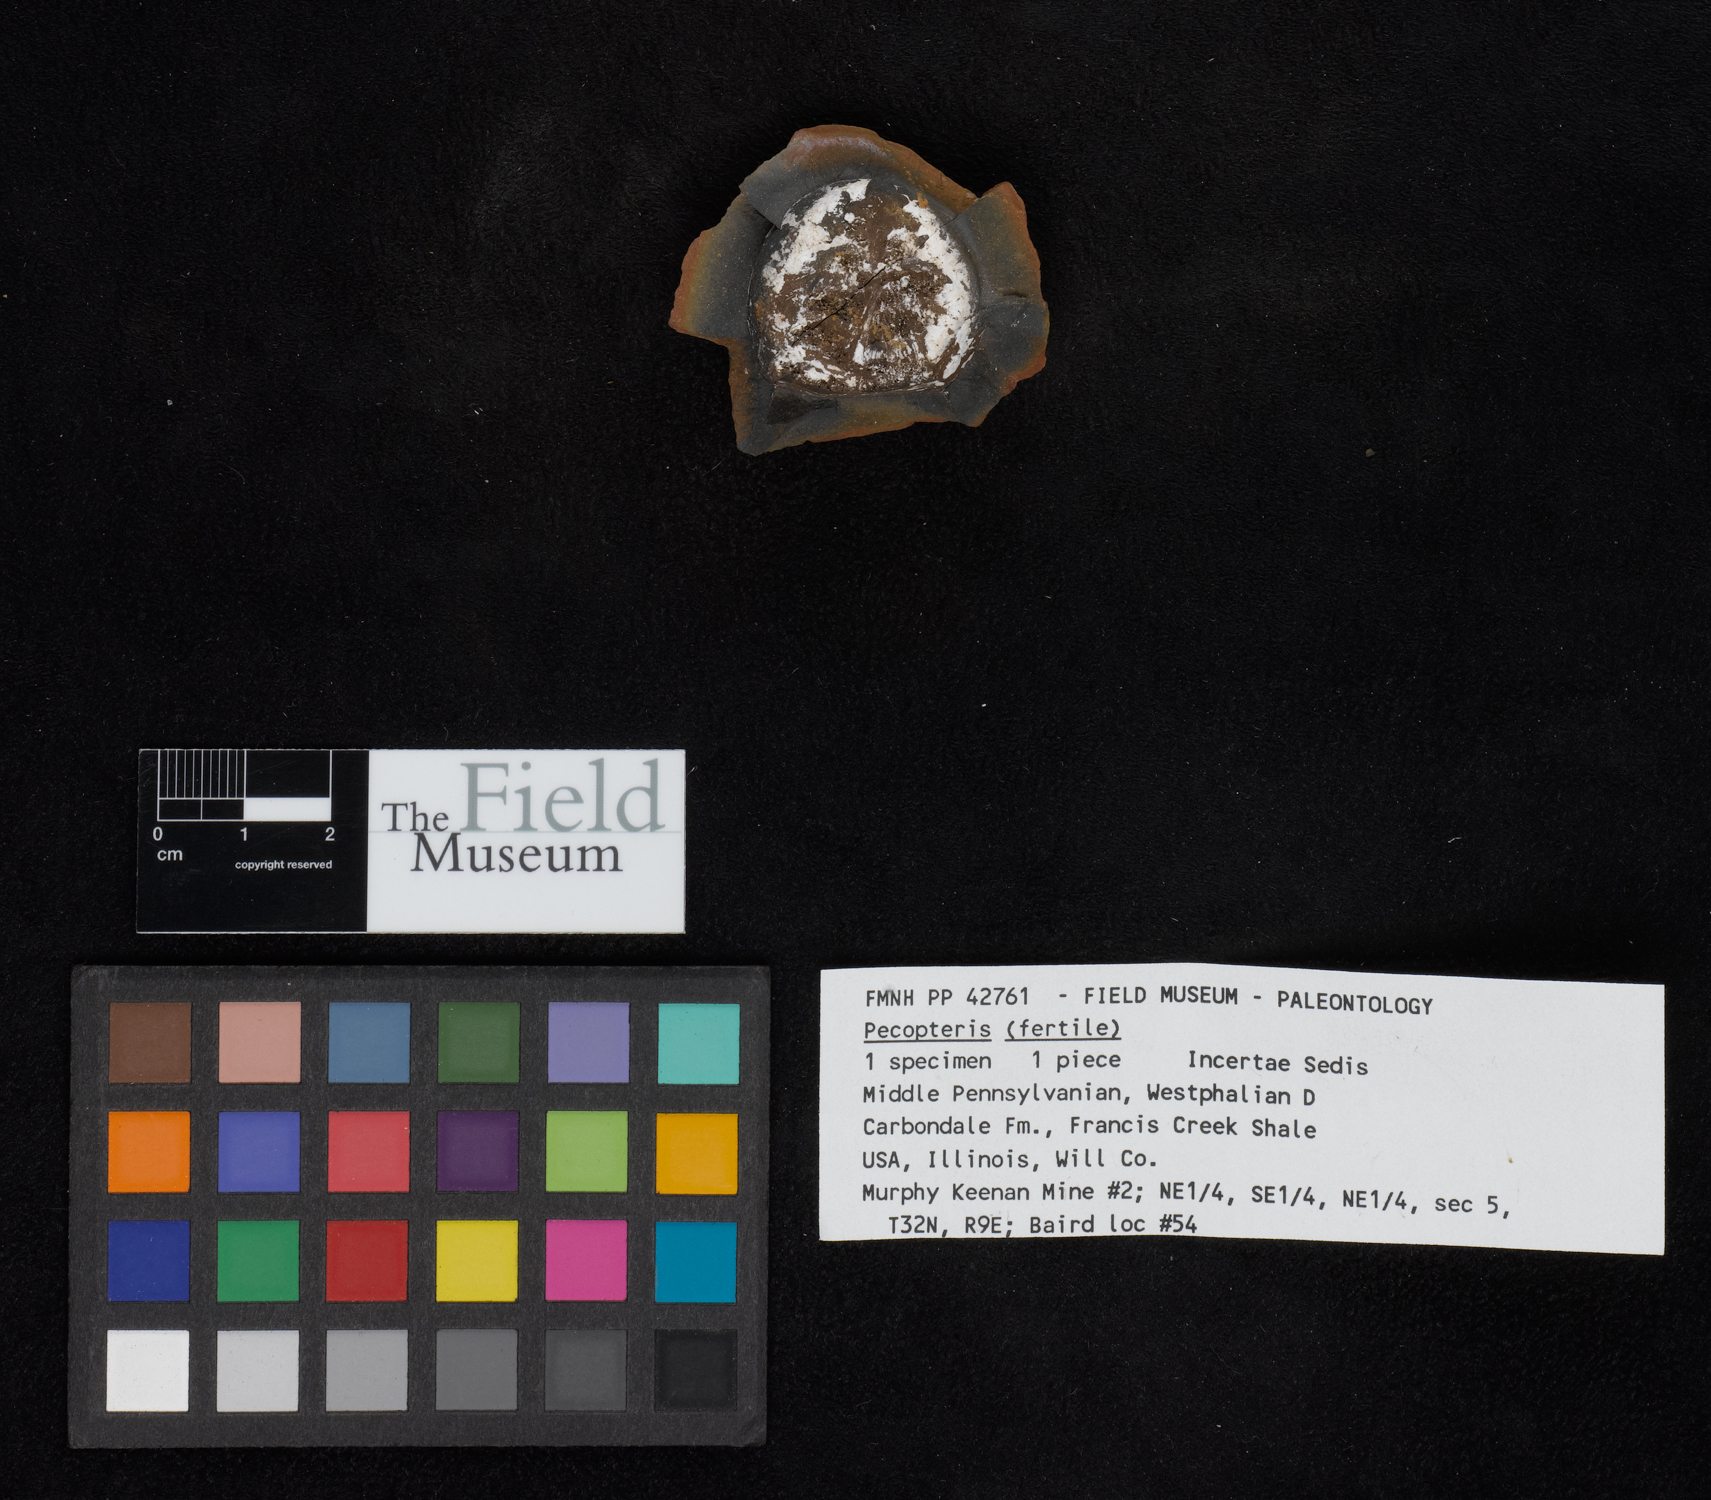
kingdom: Plantae
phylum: Tracheophyta
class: Polypodiopsida
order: Marattiales
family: Asterothecaceae
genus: Pecopteris
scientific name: Pecopteris
